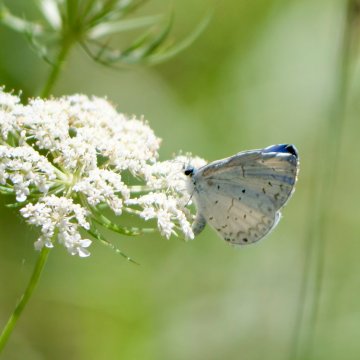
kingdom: Animalia
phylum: Arthropoda
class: Insecta
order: Lepidoptera
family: Lycaenidae
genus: Cyaniris
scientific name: Cyaniris neglecta
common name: Summer Azure
